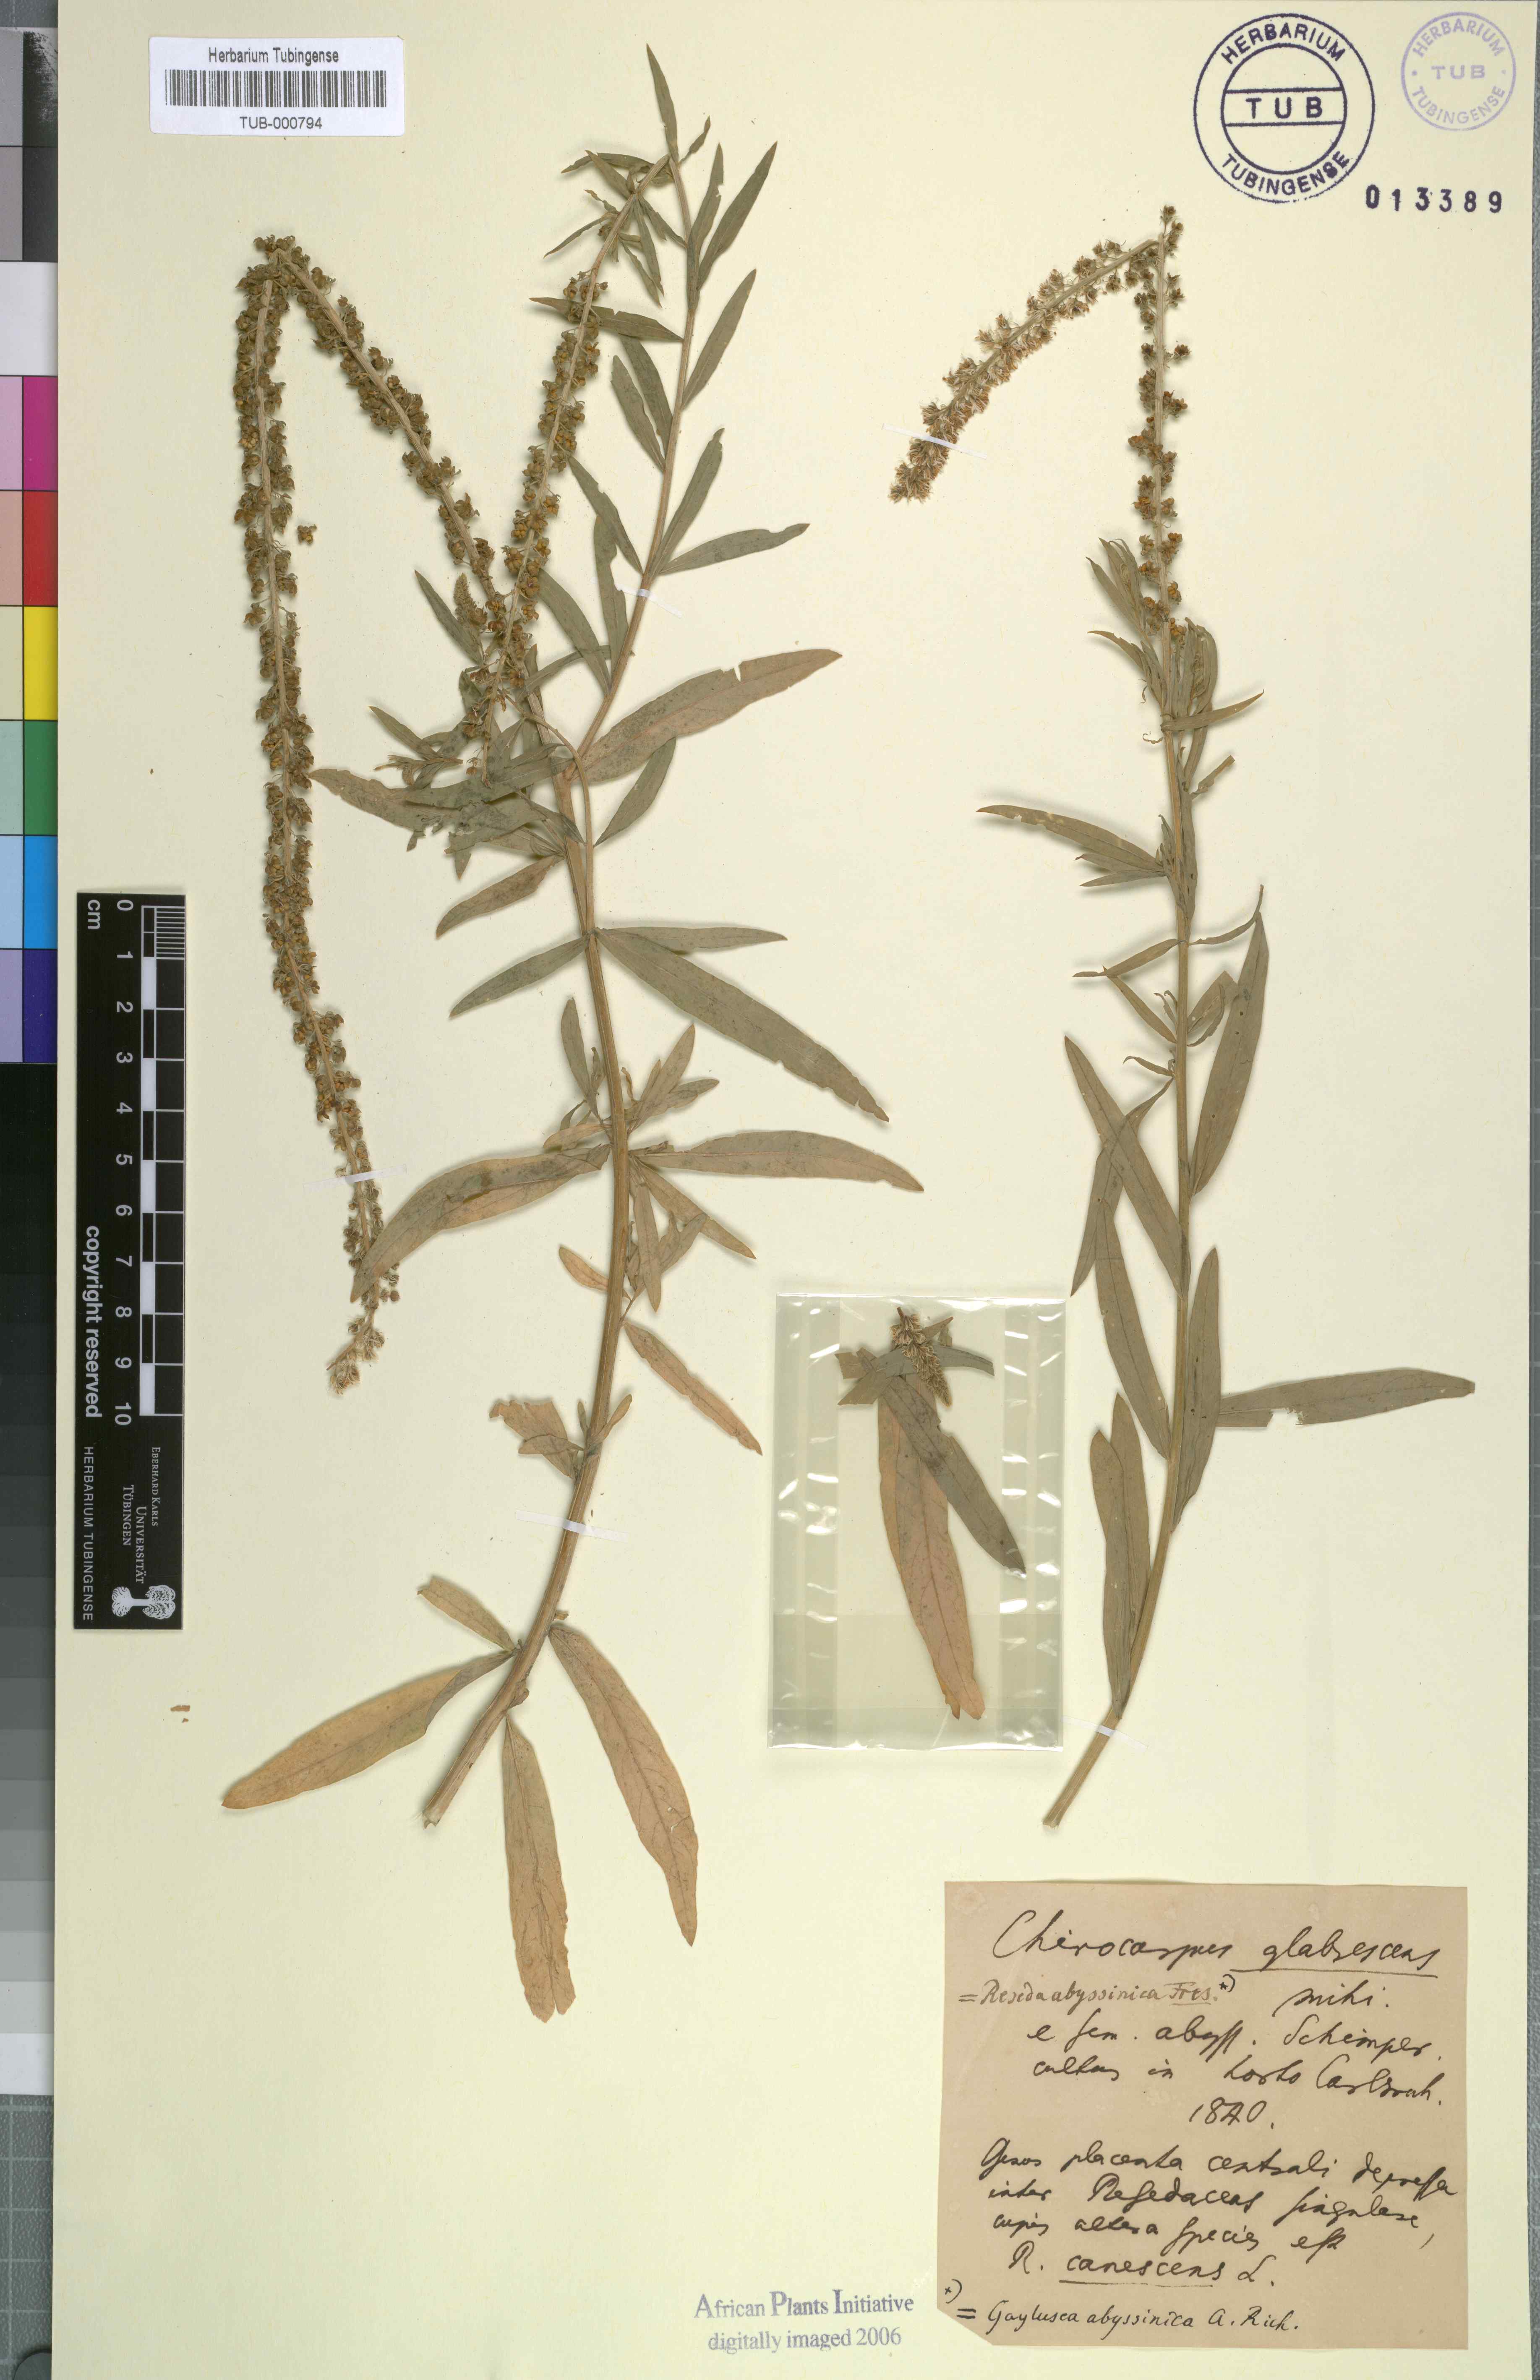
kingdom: Plantae
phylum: Tracheophyta
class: Magnoliopsida
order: Brassicales
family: Resedaceae
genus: Caylusea
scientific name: Caylusea abyssinica
